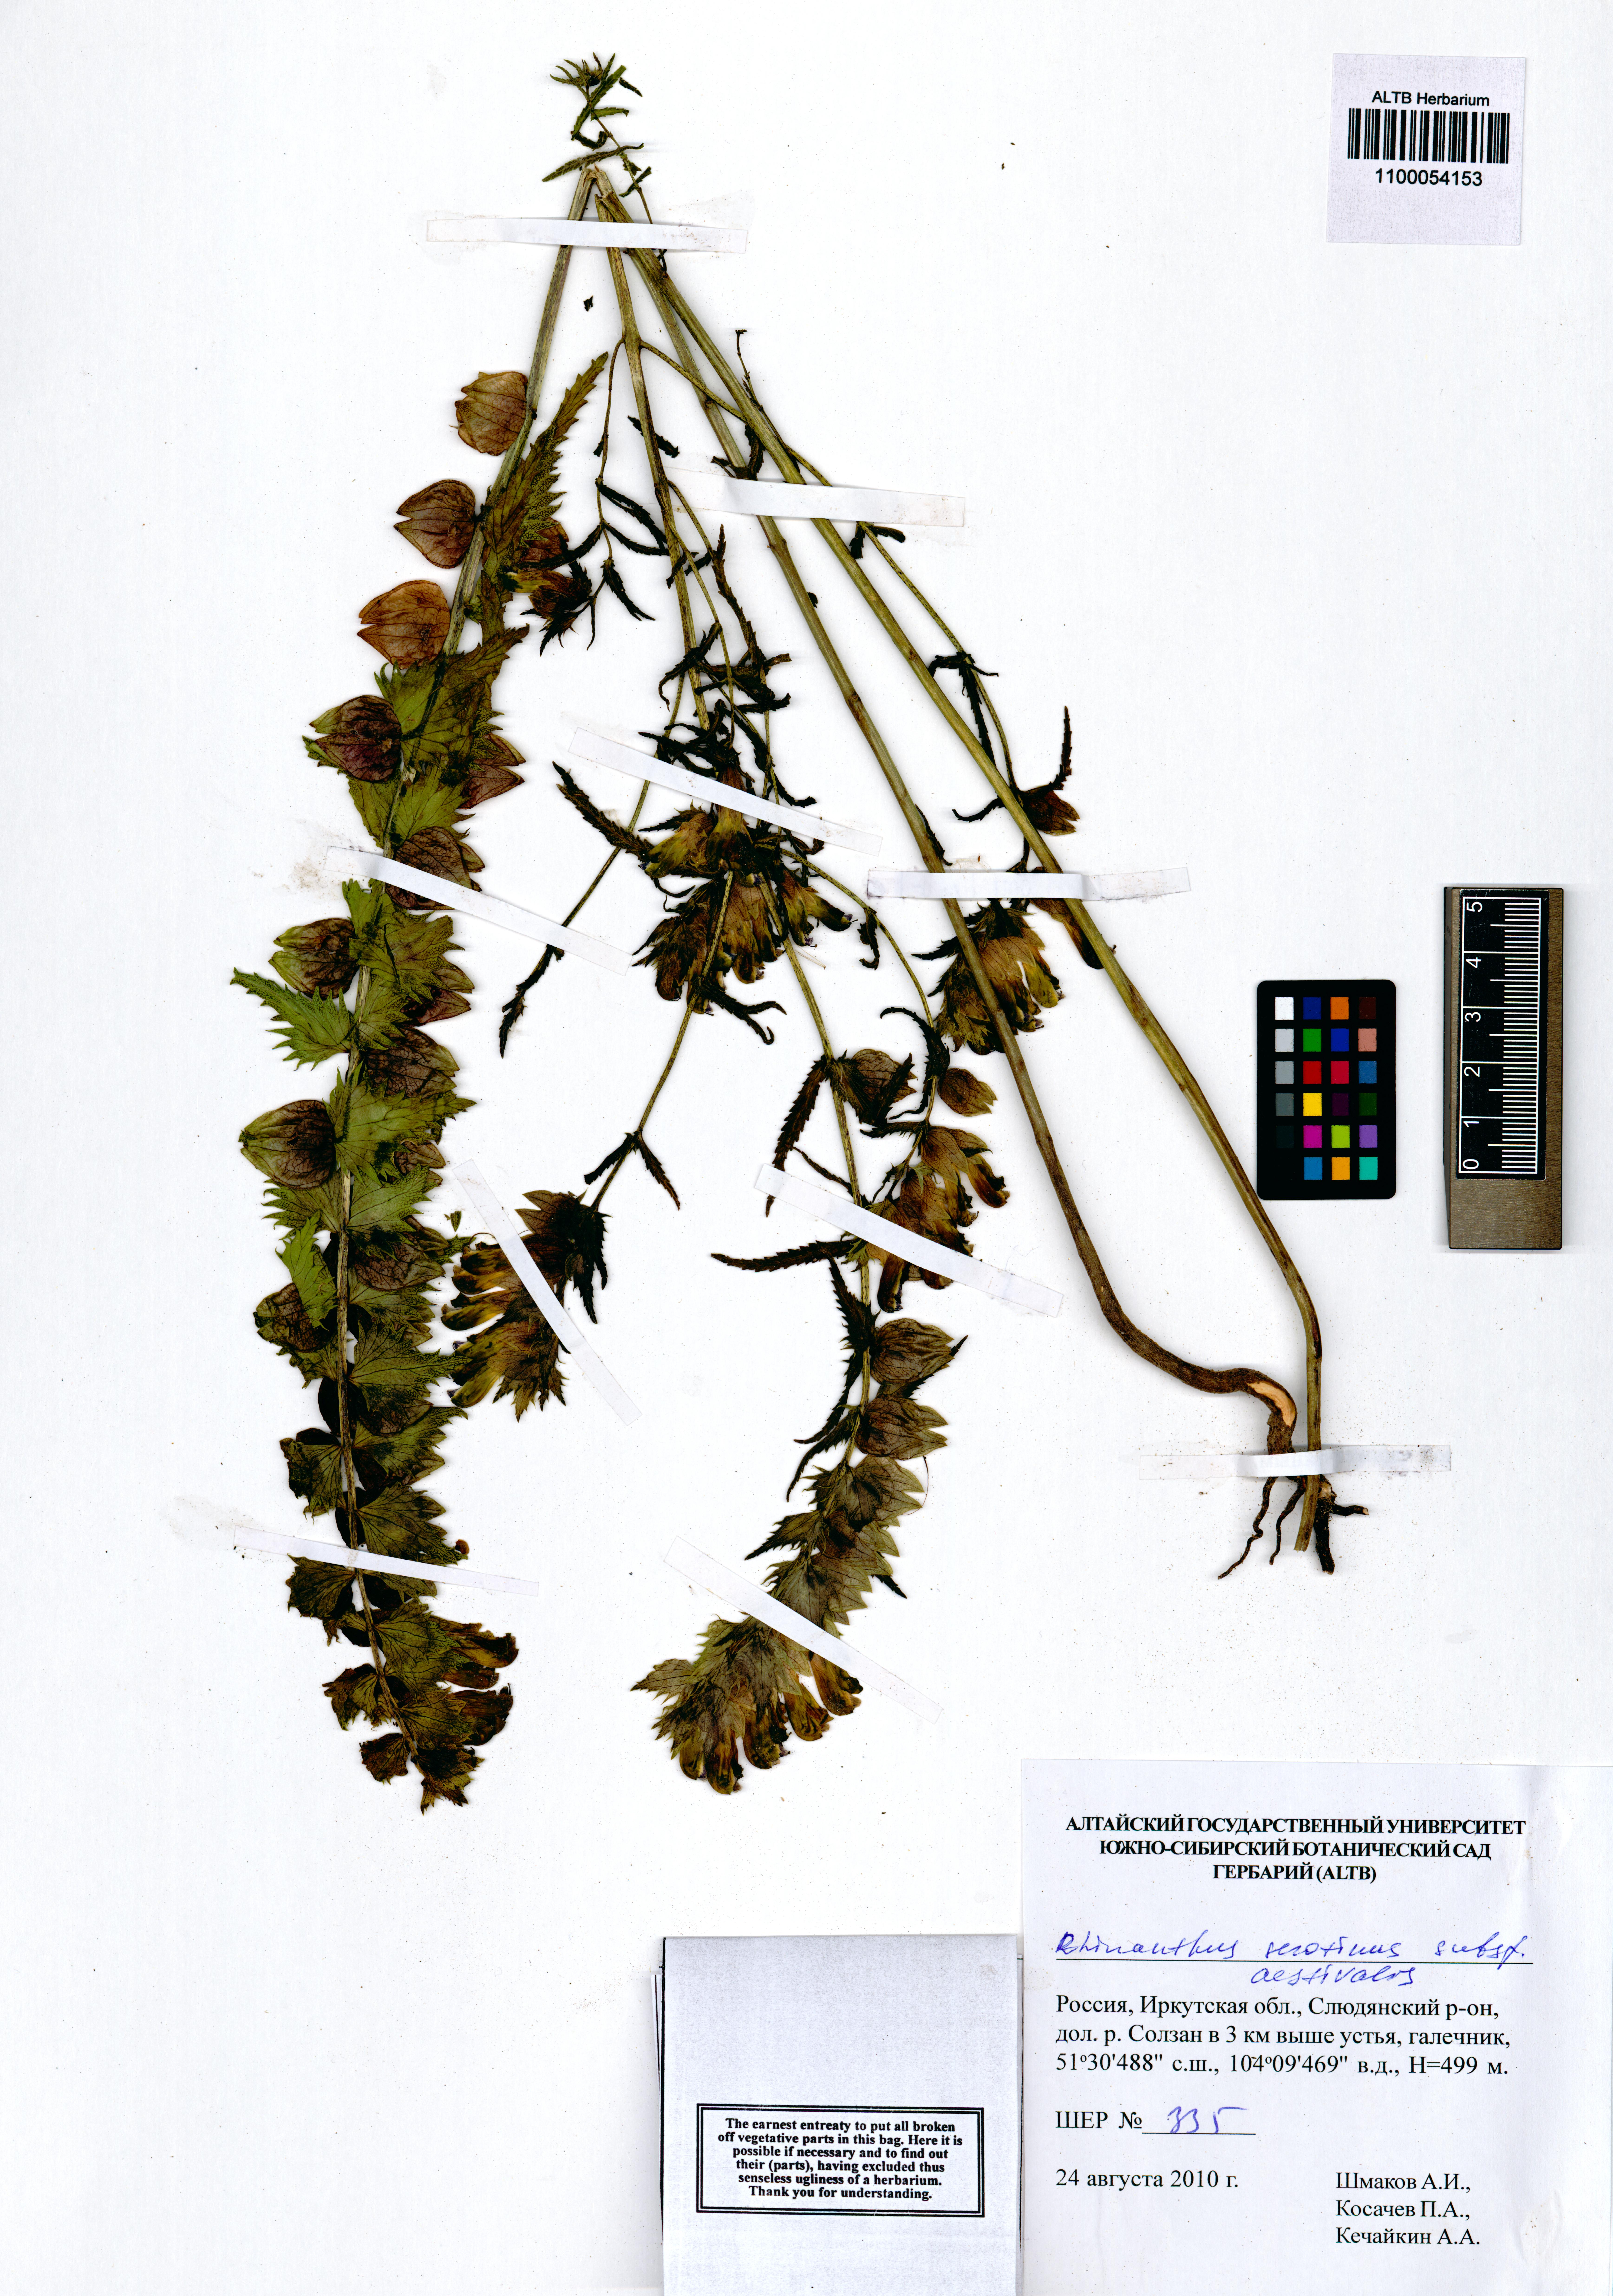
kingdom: Plantae
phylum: Tracheophyta
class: Magnoliopsida
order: Lamiales
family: Orobanchaceae
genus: Rhinanthus
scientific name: Rhinanthus serotinus
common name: Late-flowering yellow rattle
